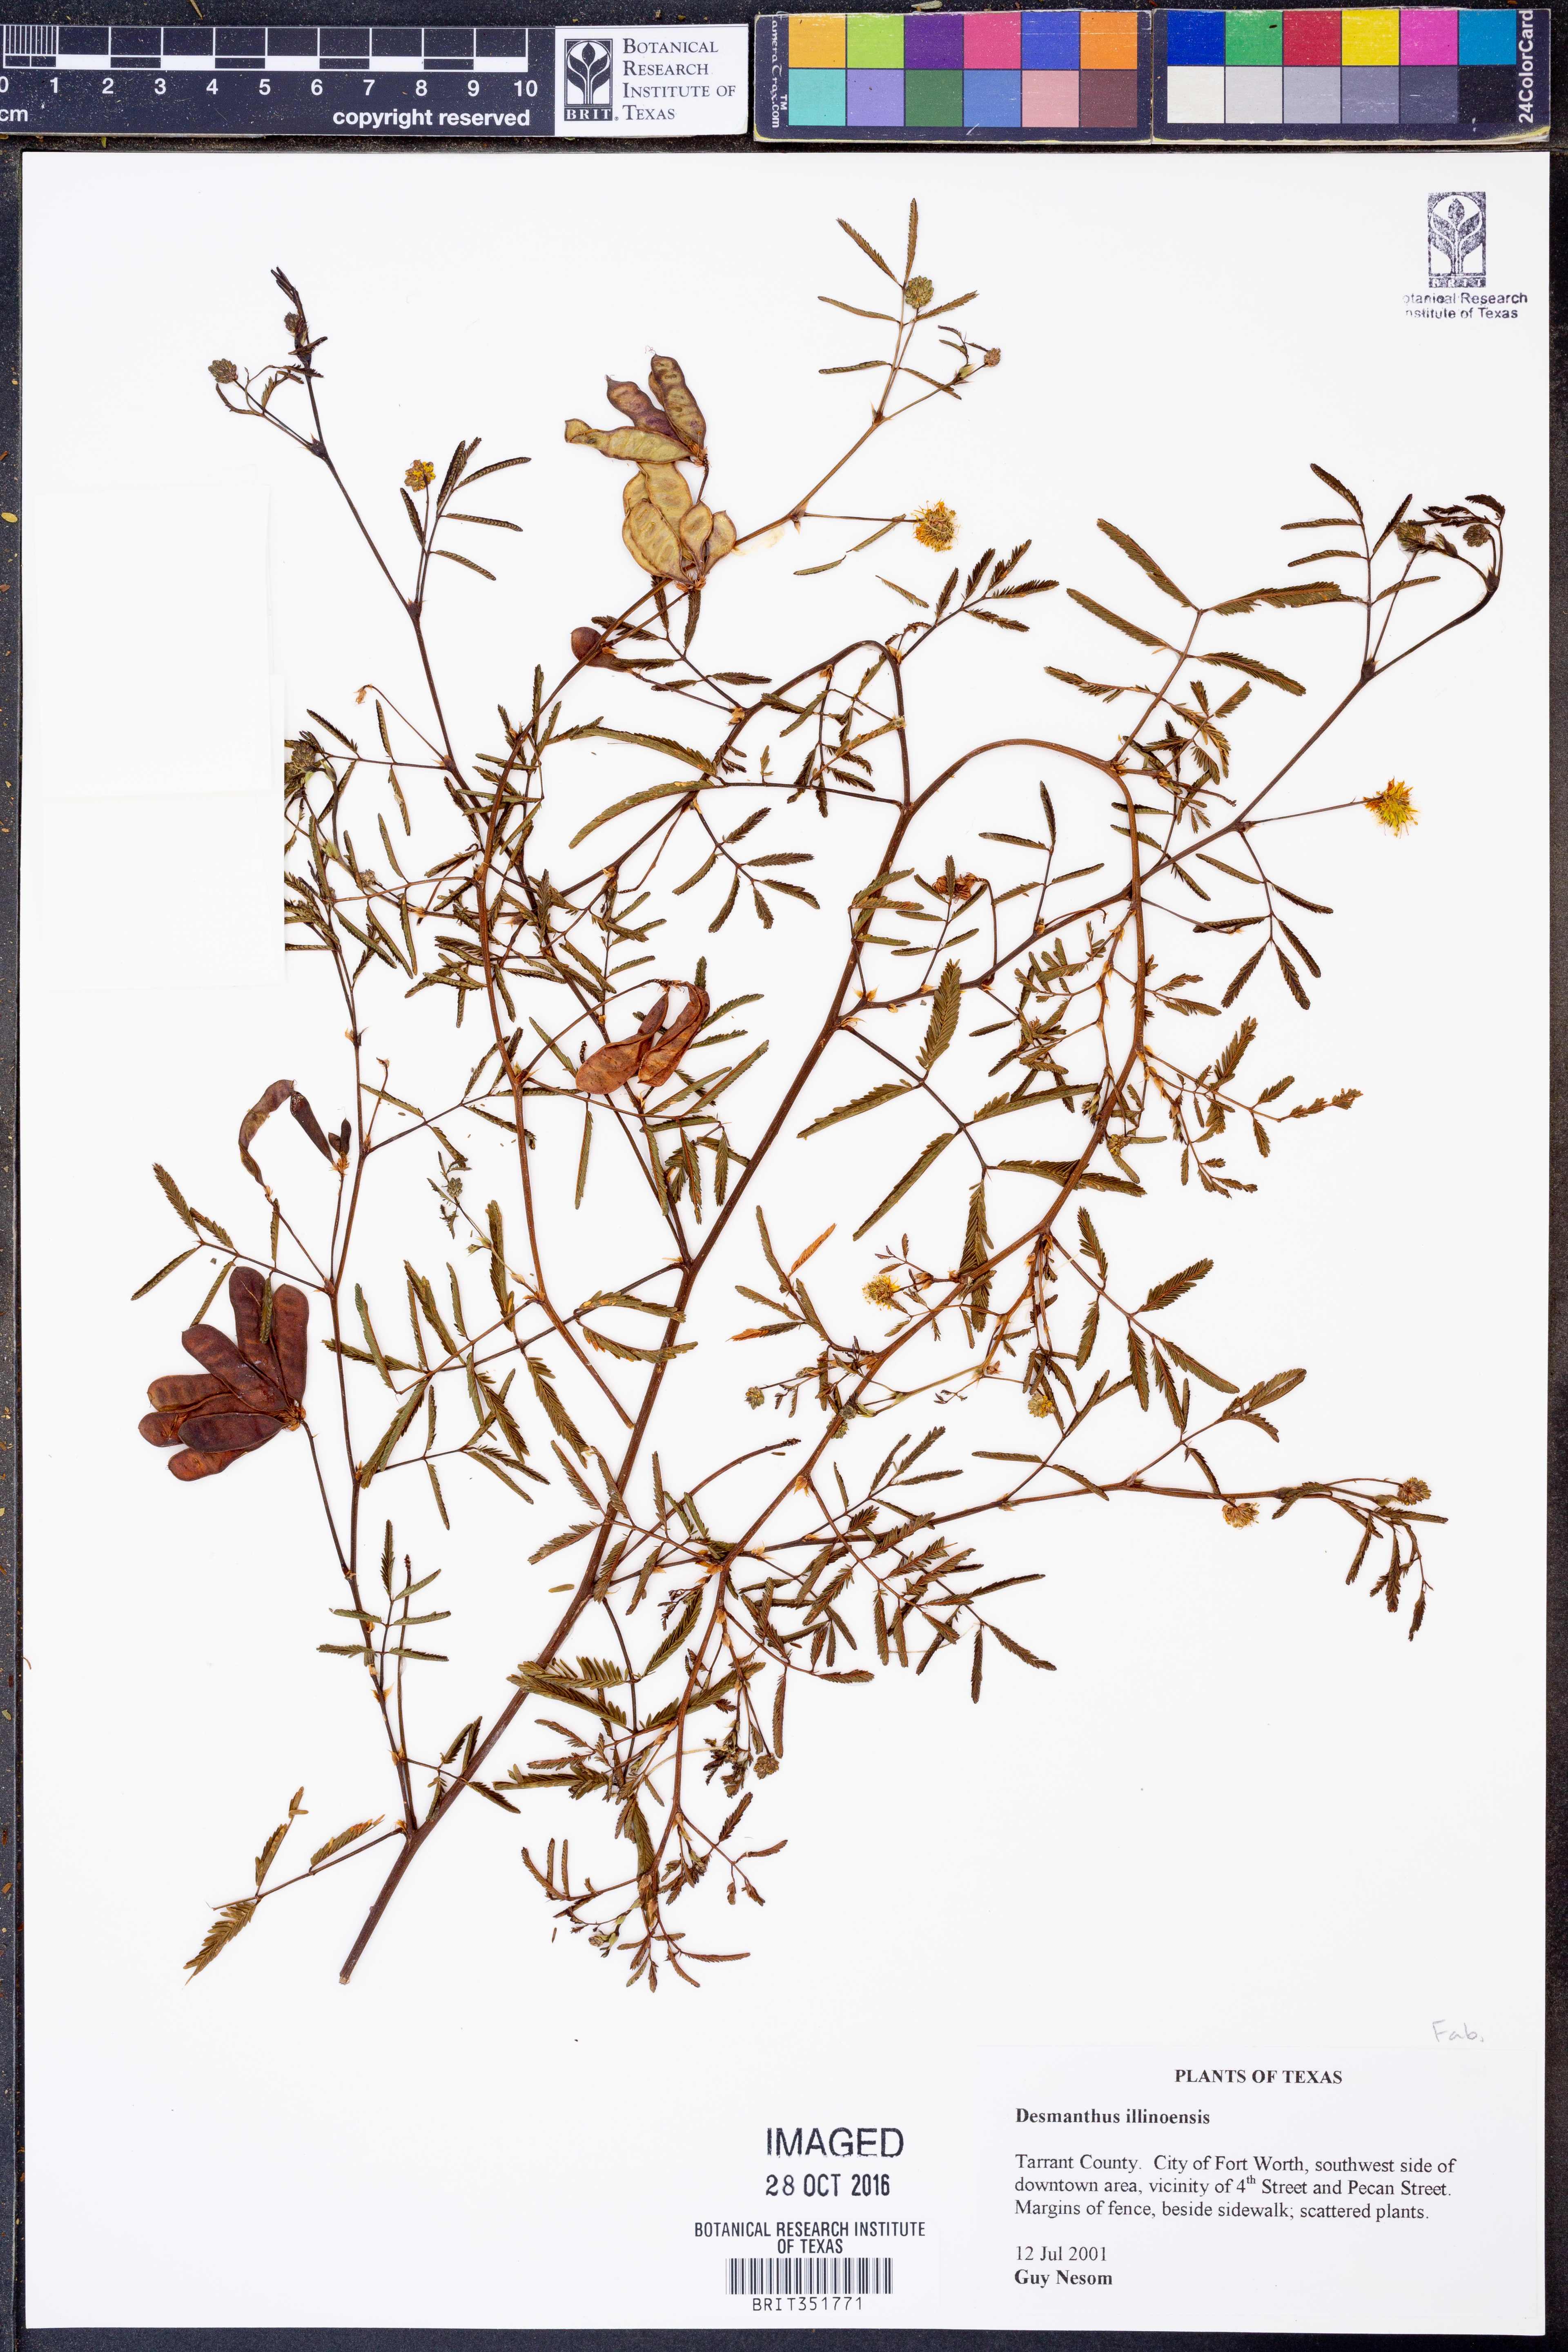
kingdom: Plantae
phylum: Tracheophyta
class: Magnoliopsida
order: Fabales
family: Fabaceae
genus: Desmanthus
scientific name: Desmanthus illinoensis
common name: Illinois bundle-flower
